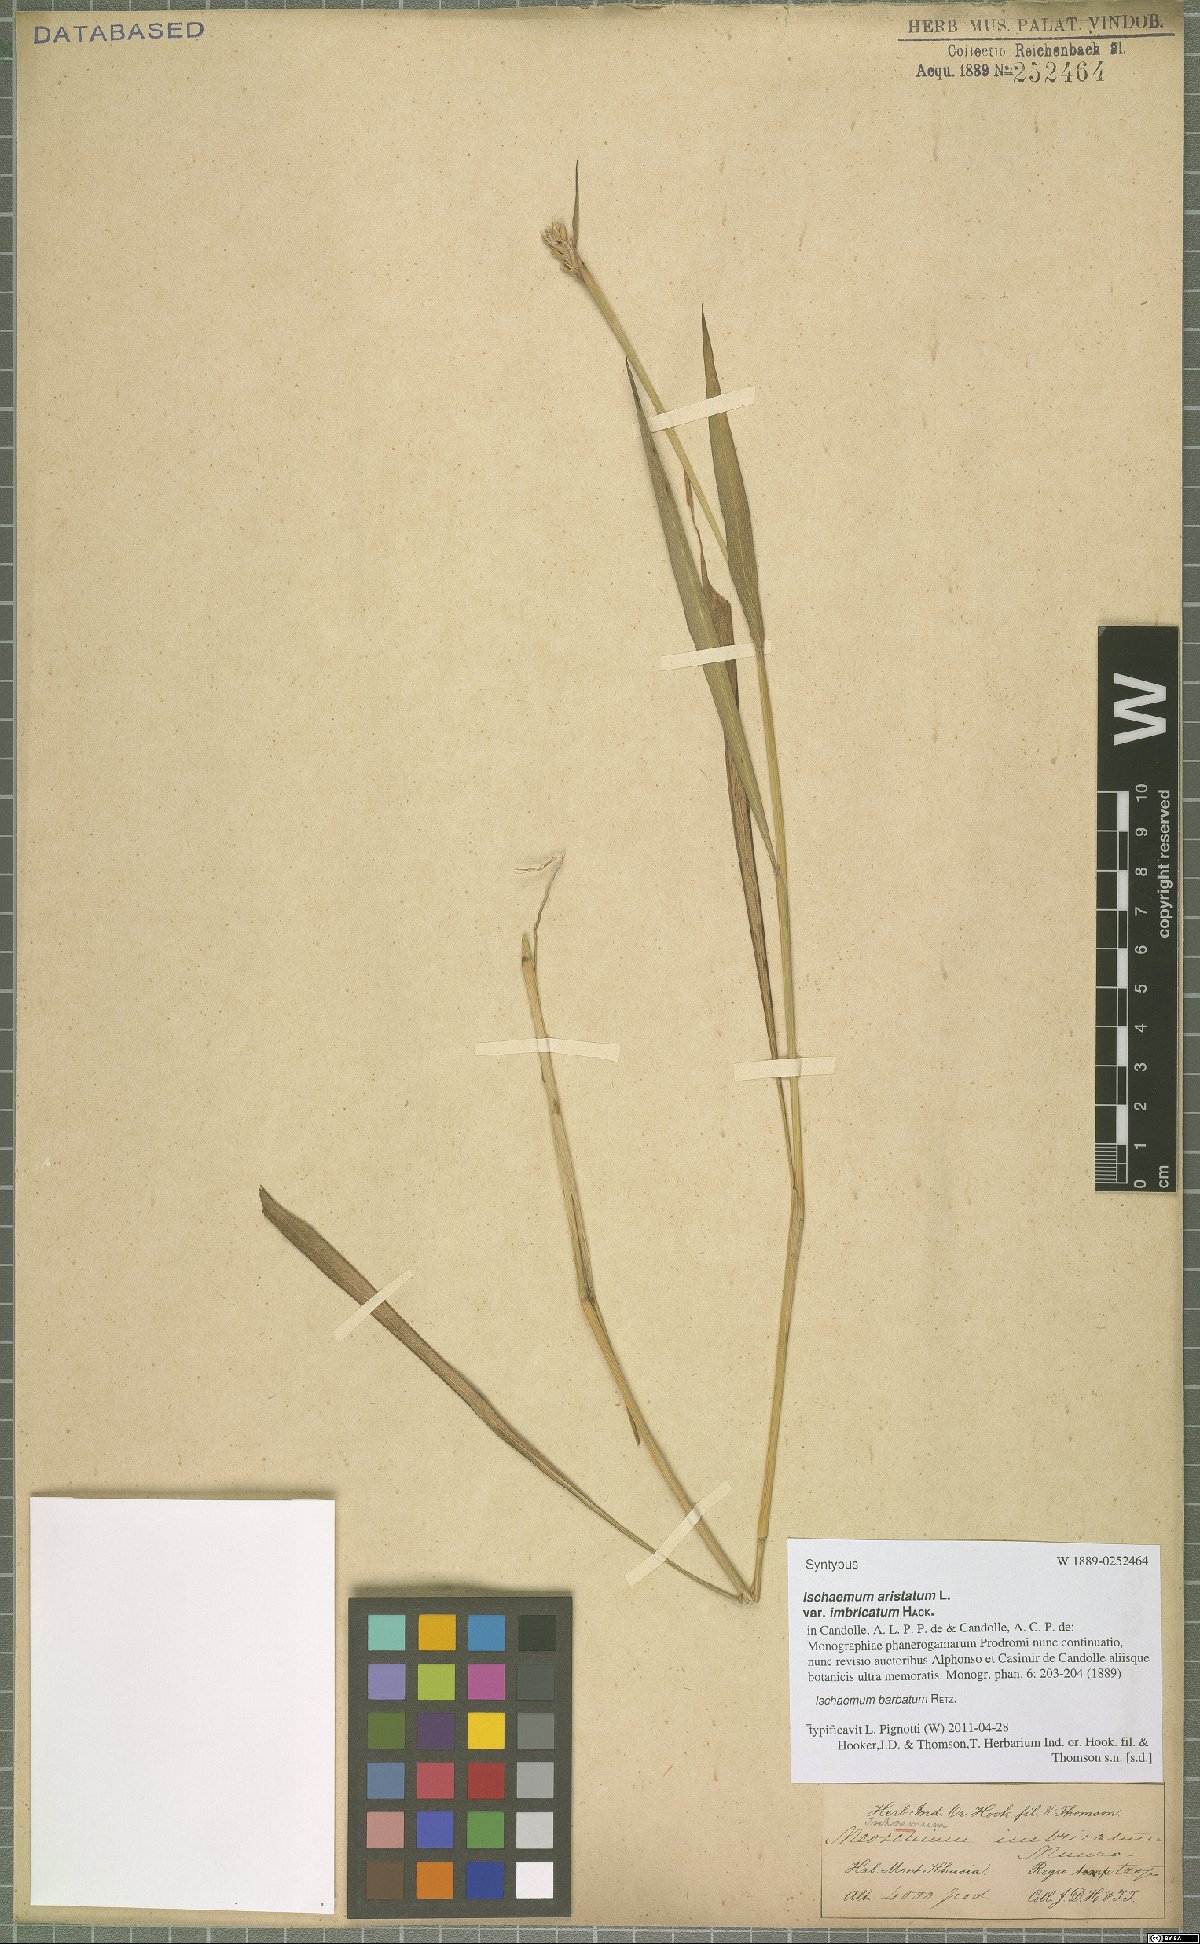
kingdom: Plantae
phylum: Tracheophyta
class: Liliopsida
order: Poales
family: Poaceae
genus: Ischaemum
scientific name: Ischaemum barbatum
